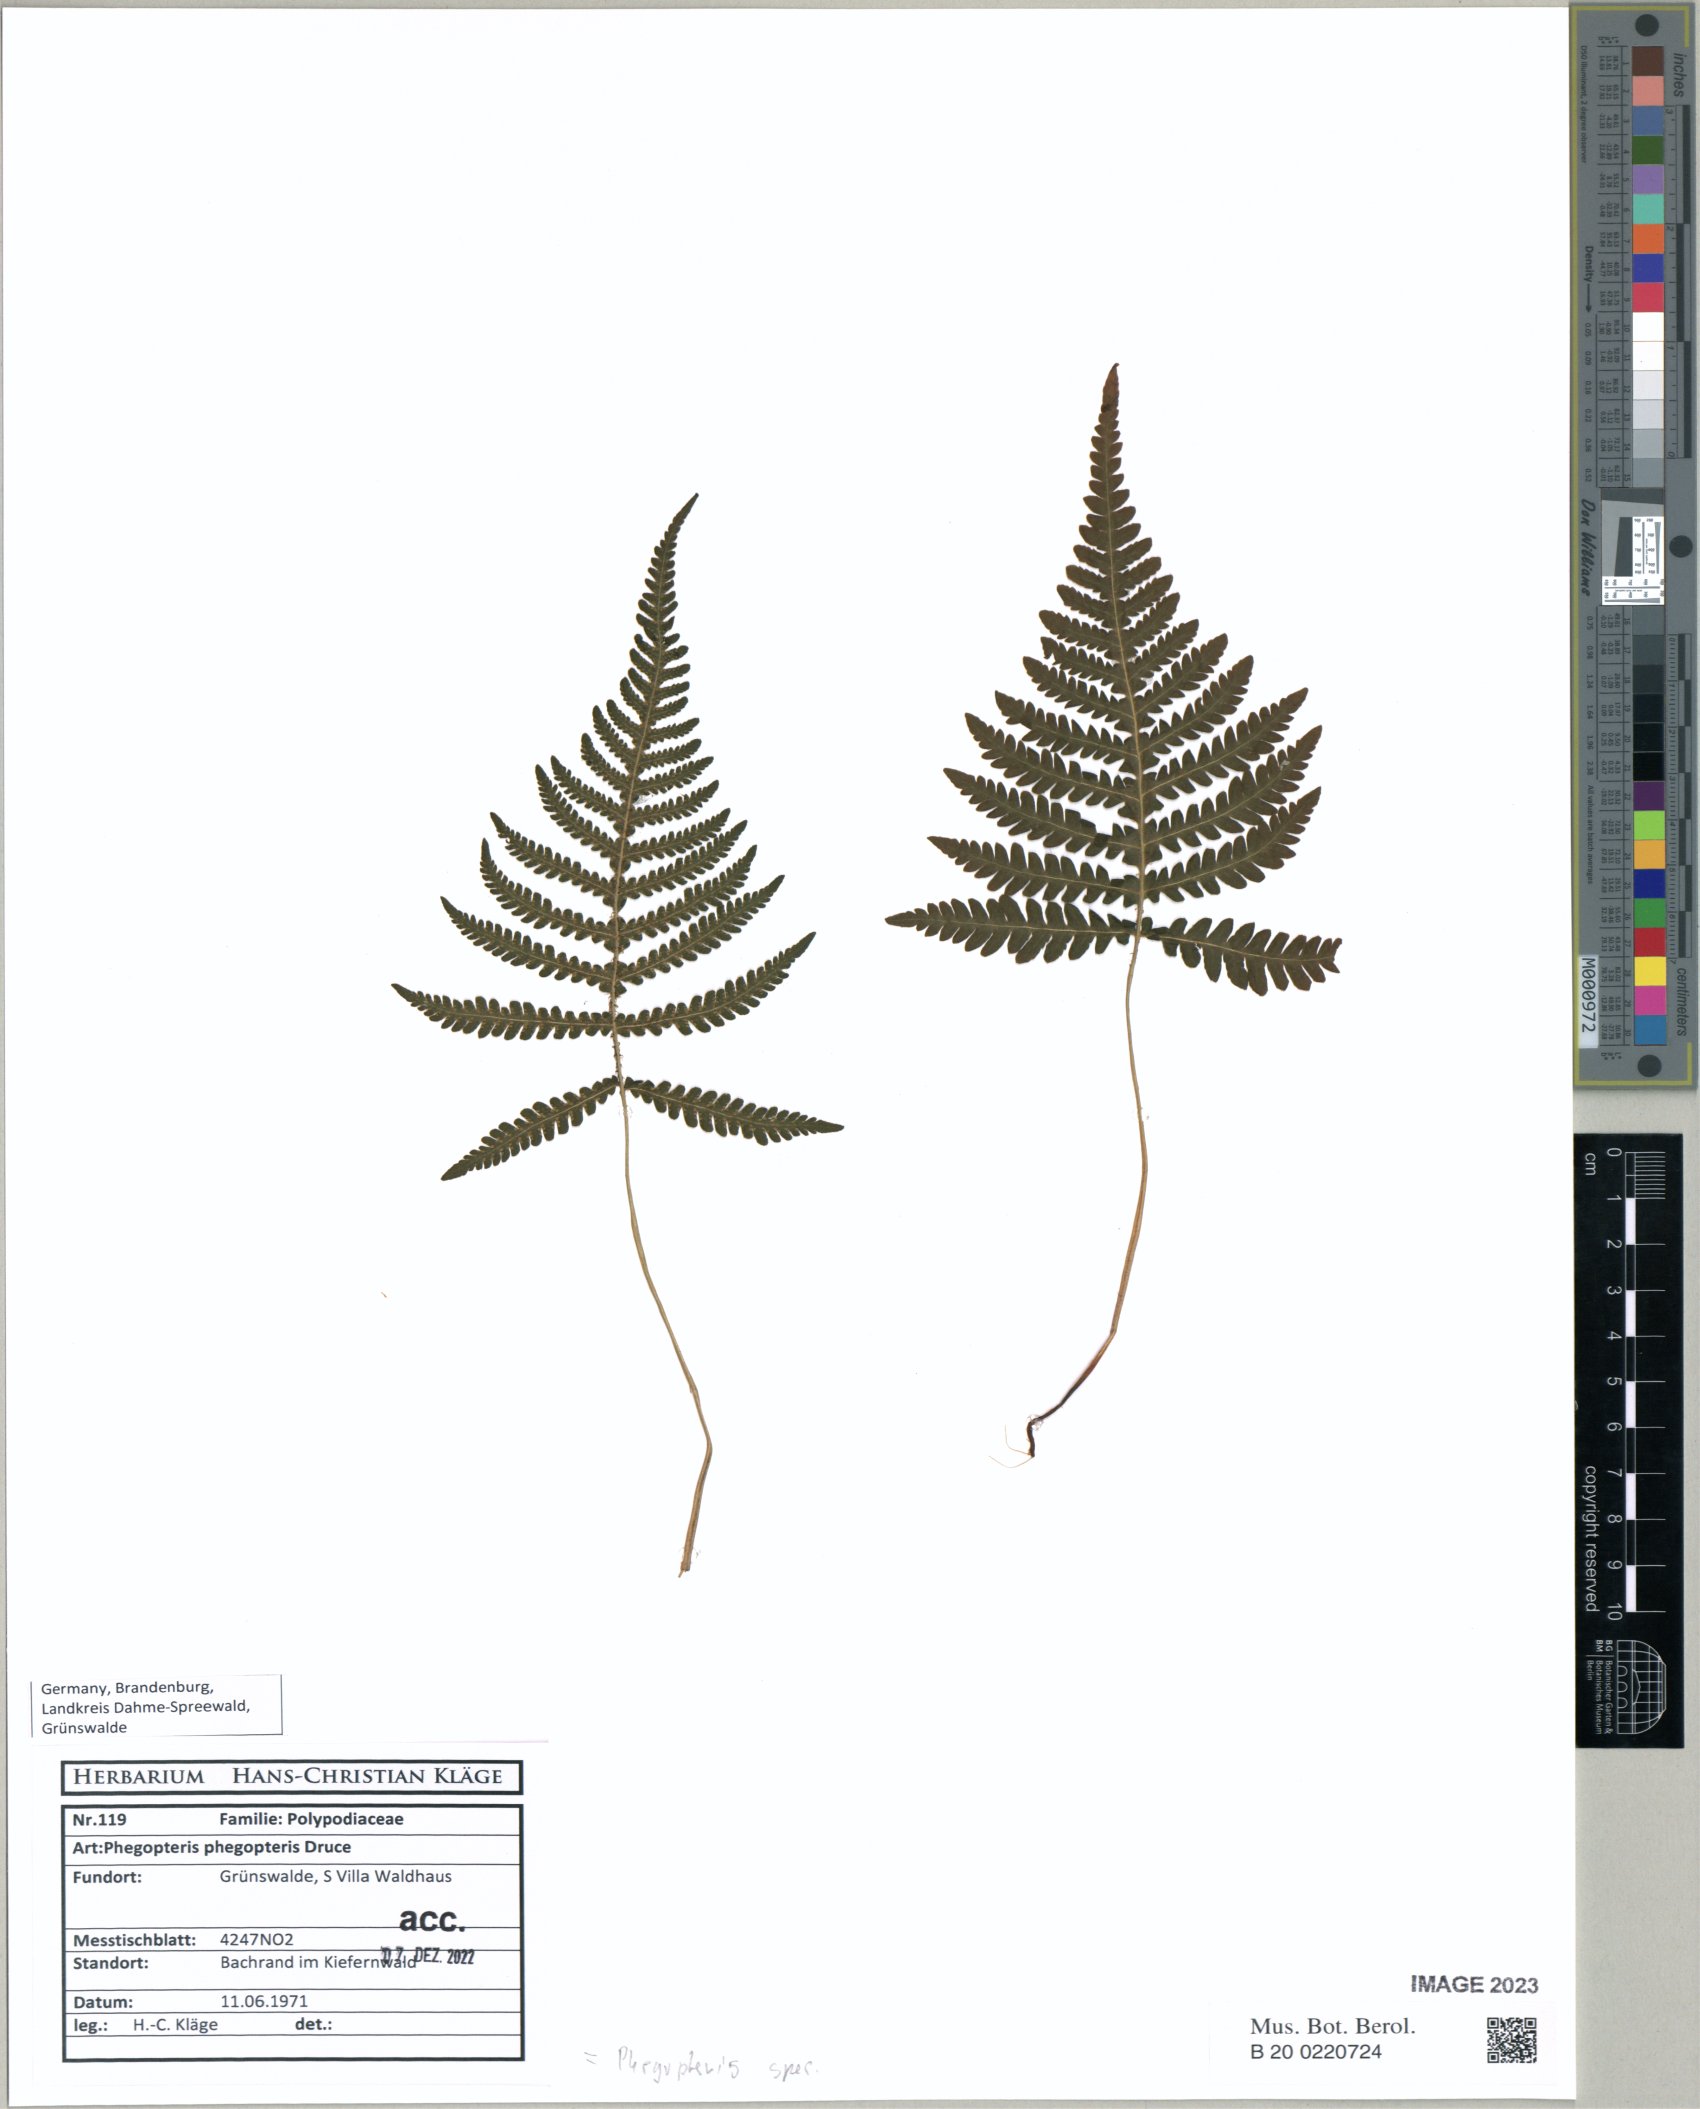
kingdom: Plantae
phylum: Tracheophyta
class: Polypodiopsida
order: Polypodiales
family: Thelypteridaceae
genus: Phegopteris
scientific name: Phegopteris connectilis
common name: Beech fern
